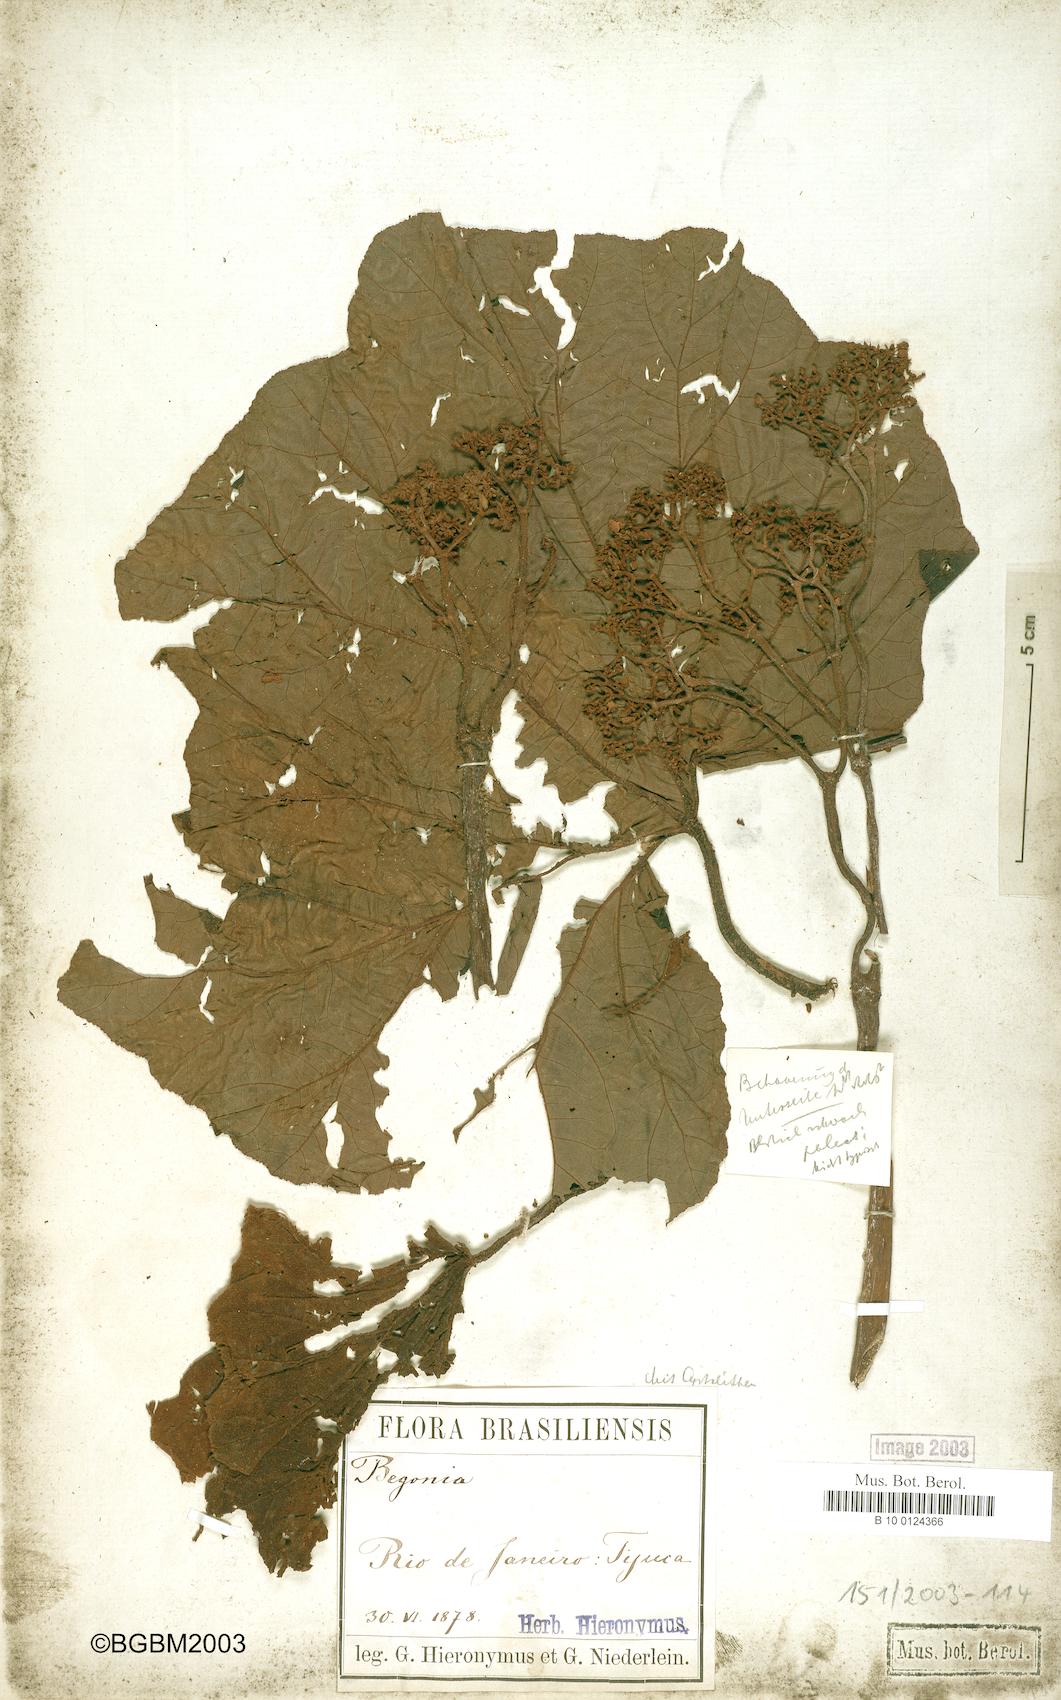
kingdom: Plantae
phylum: Tracheophyta
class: Magnoliopsida
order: Cucurbitales
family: Begoniaceae
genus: Begonia
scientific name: Begonia paleata
